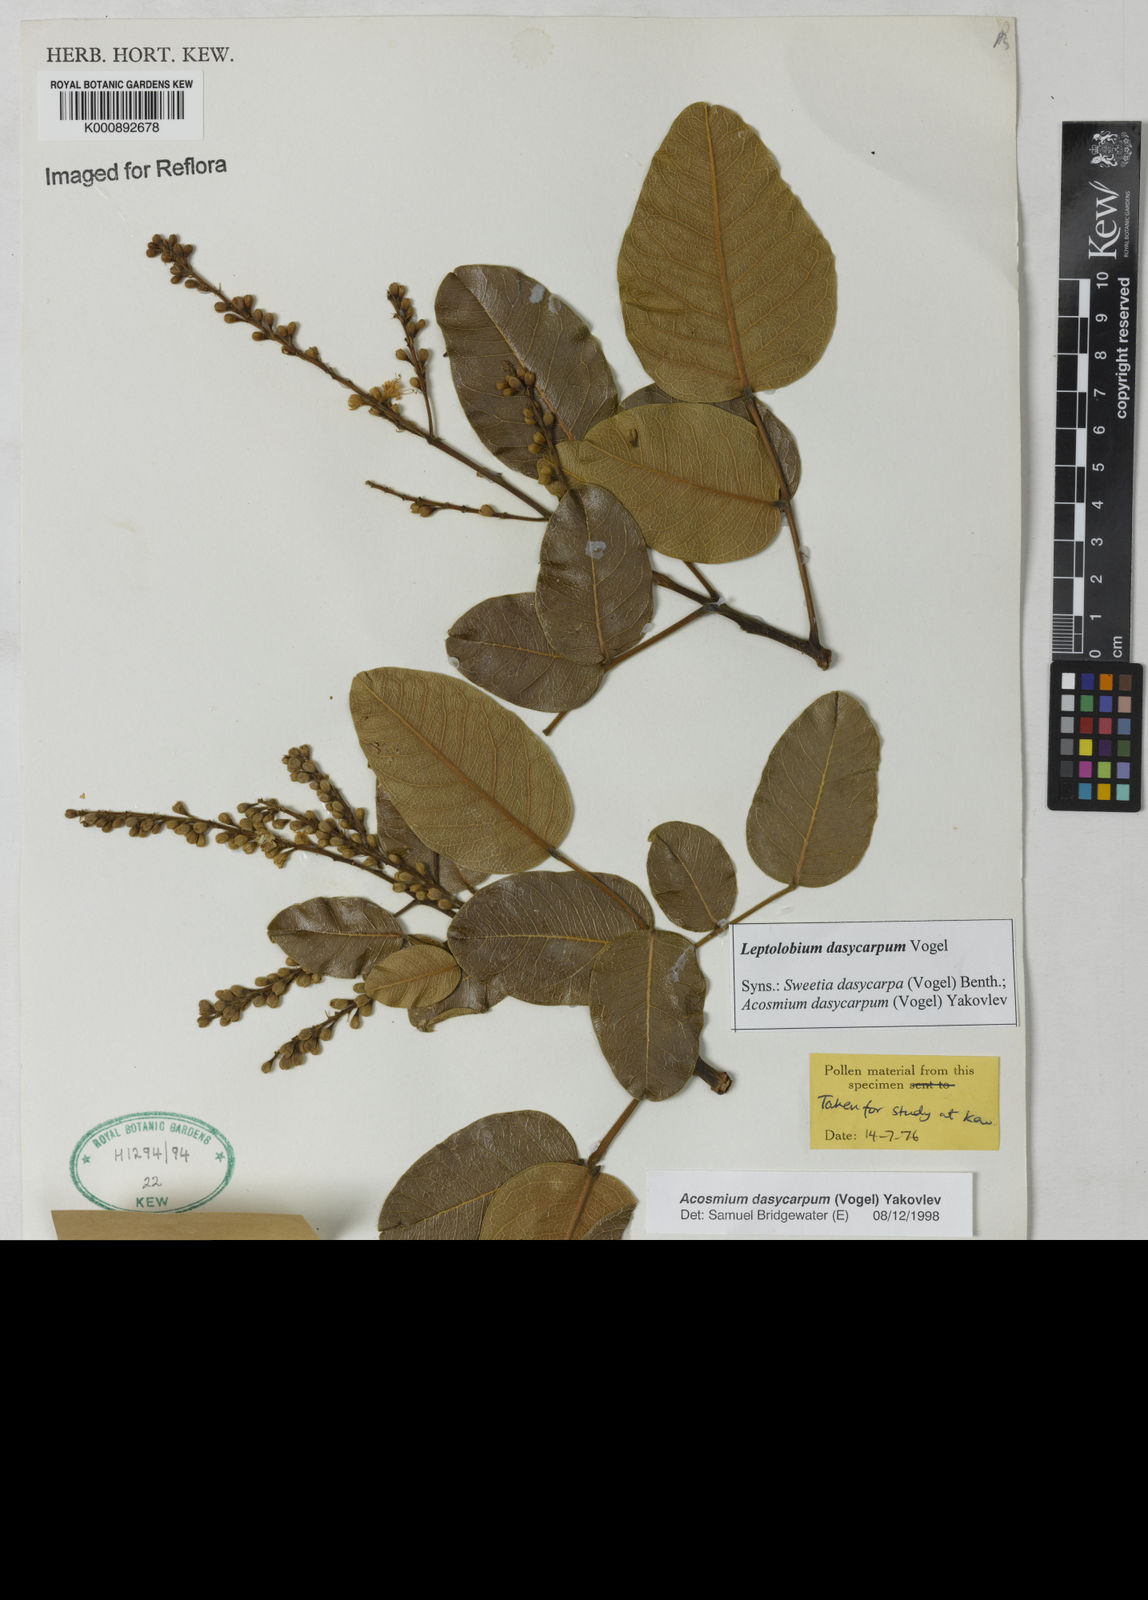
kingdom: Plantae
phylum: Tracheophyta
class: Magnoliopsida
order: Fabales
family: Fabaceae
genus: Leptolobium
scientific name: Leptolobium dasycarpum
